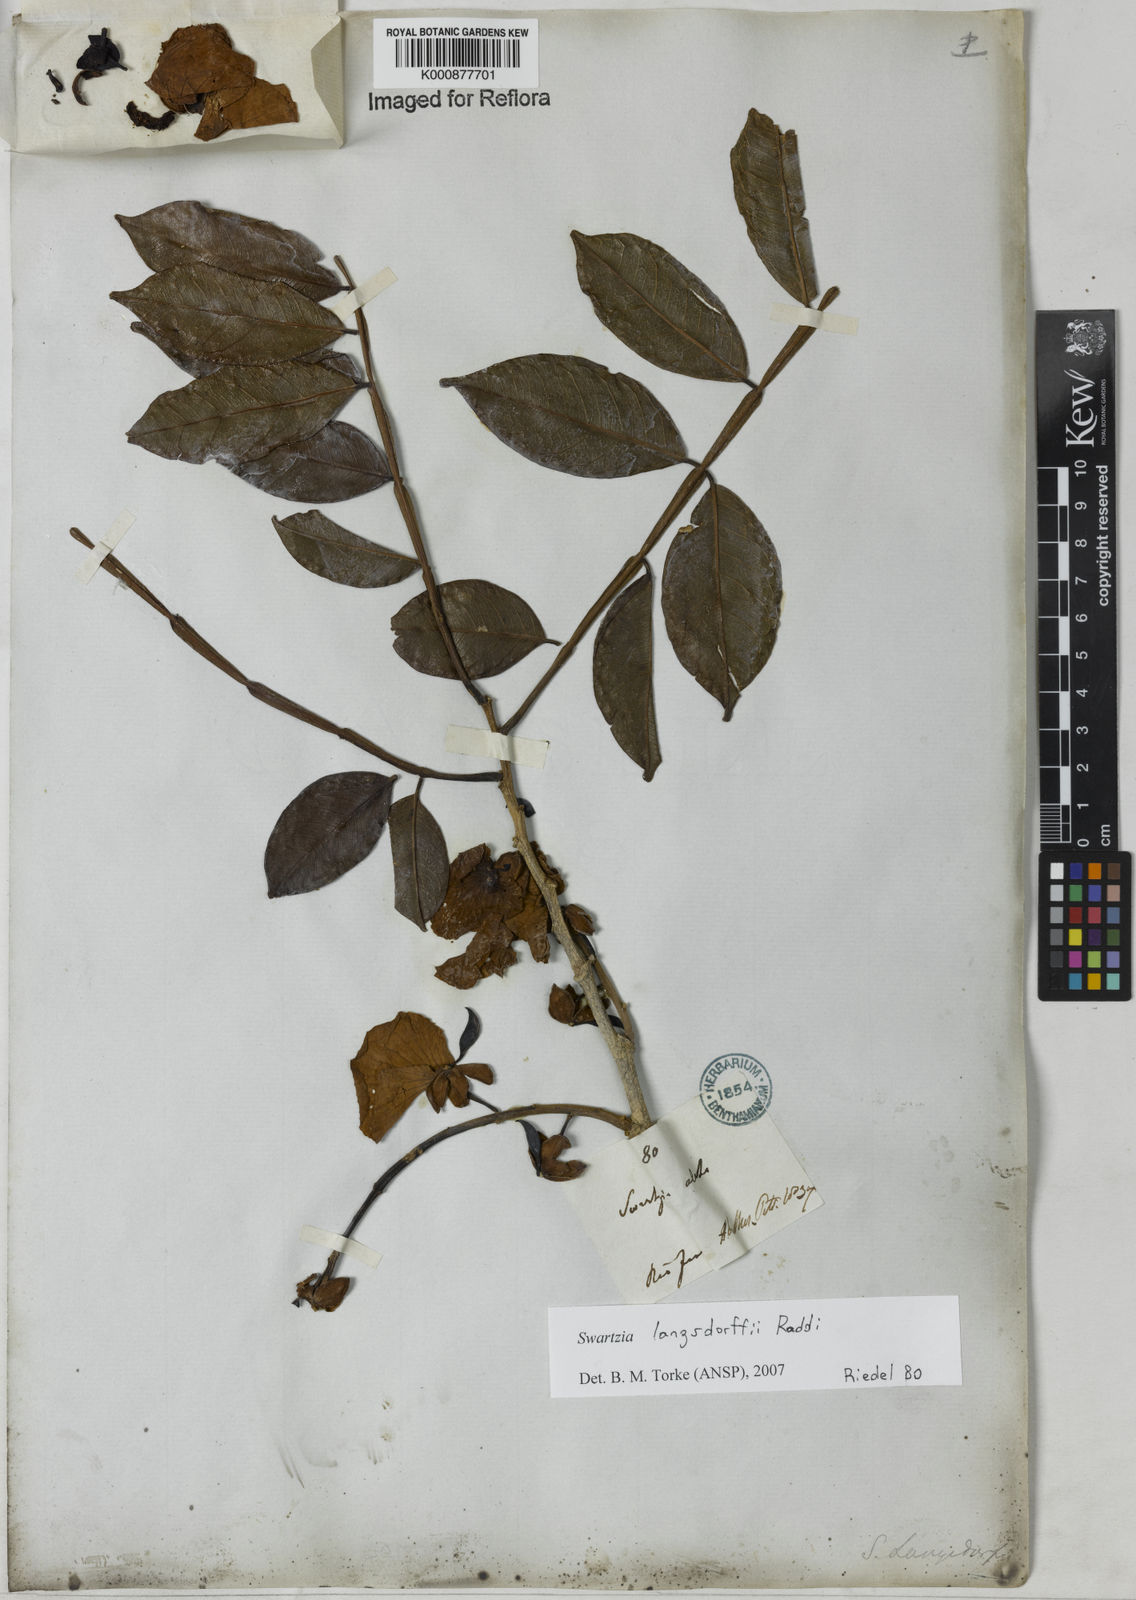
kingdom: Plantae
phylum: Tracheophyta
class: Magnoliopsida
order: Fabales
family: Fabaceae
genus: Swartzia
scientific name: Swartzia langsdorffii
